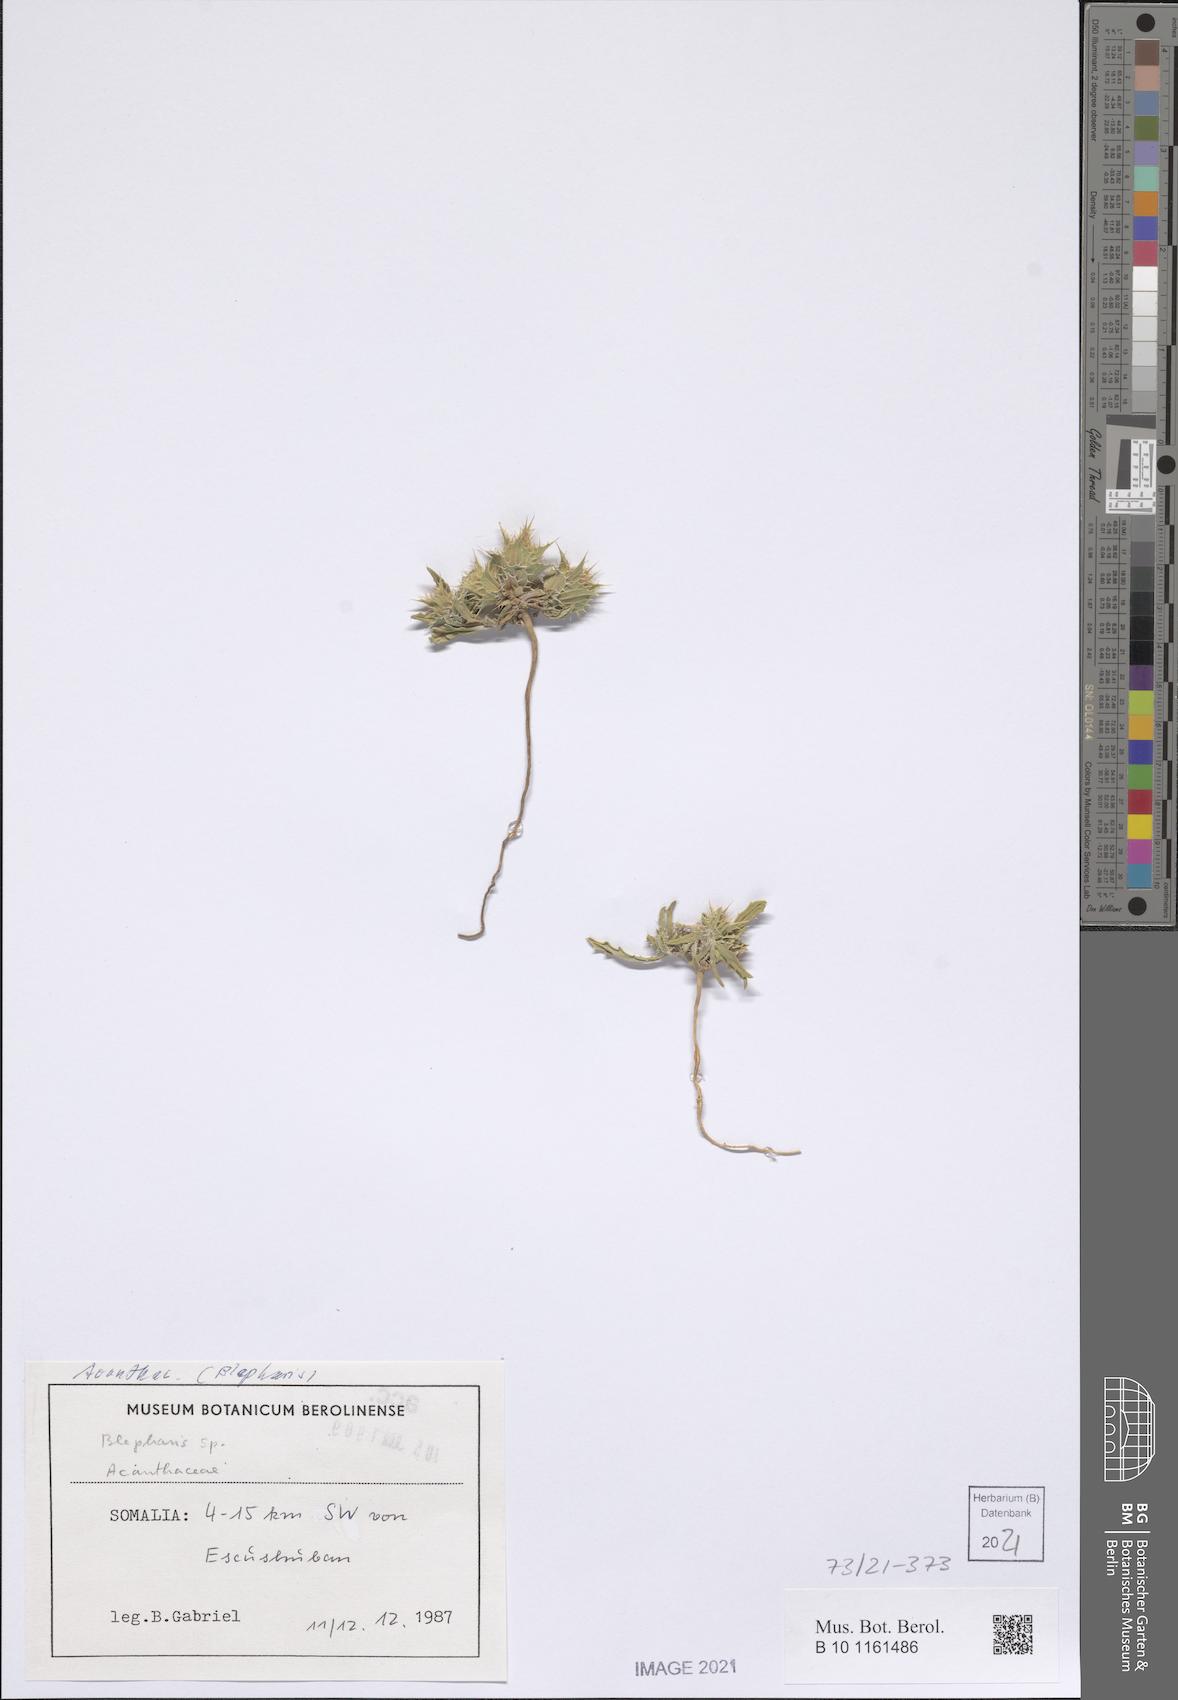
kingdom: Plantae
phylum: Tracheophyta
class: Magnoliopsida
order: Lamiales
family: Acanthaceae
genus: Blepharis
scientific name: Blepharis edulis
